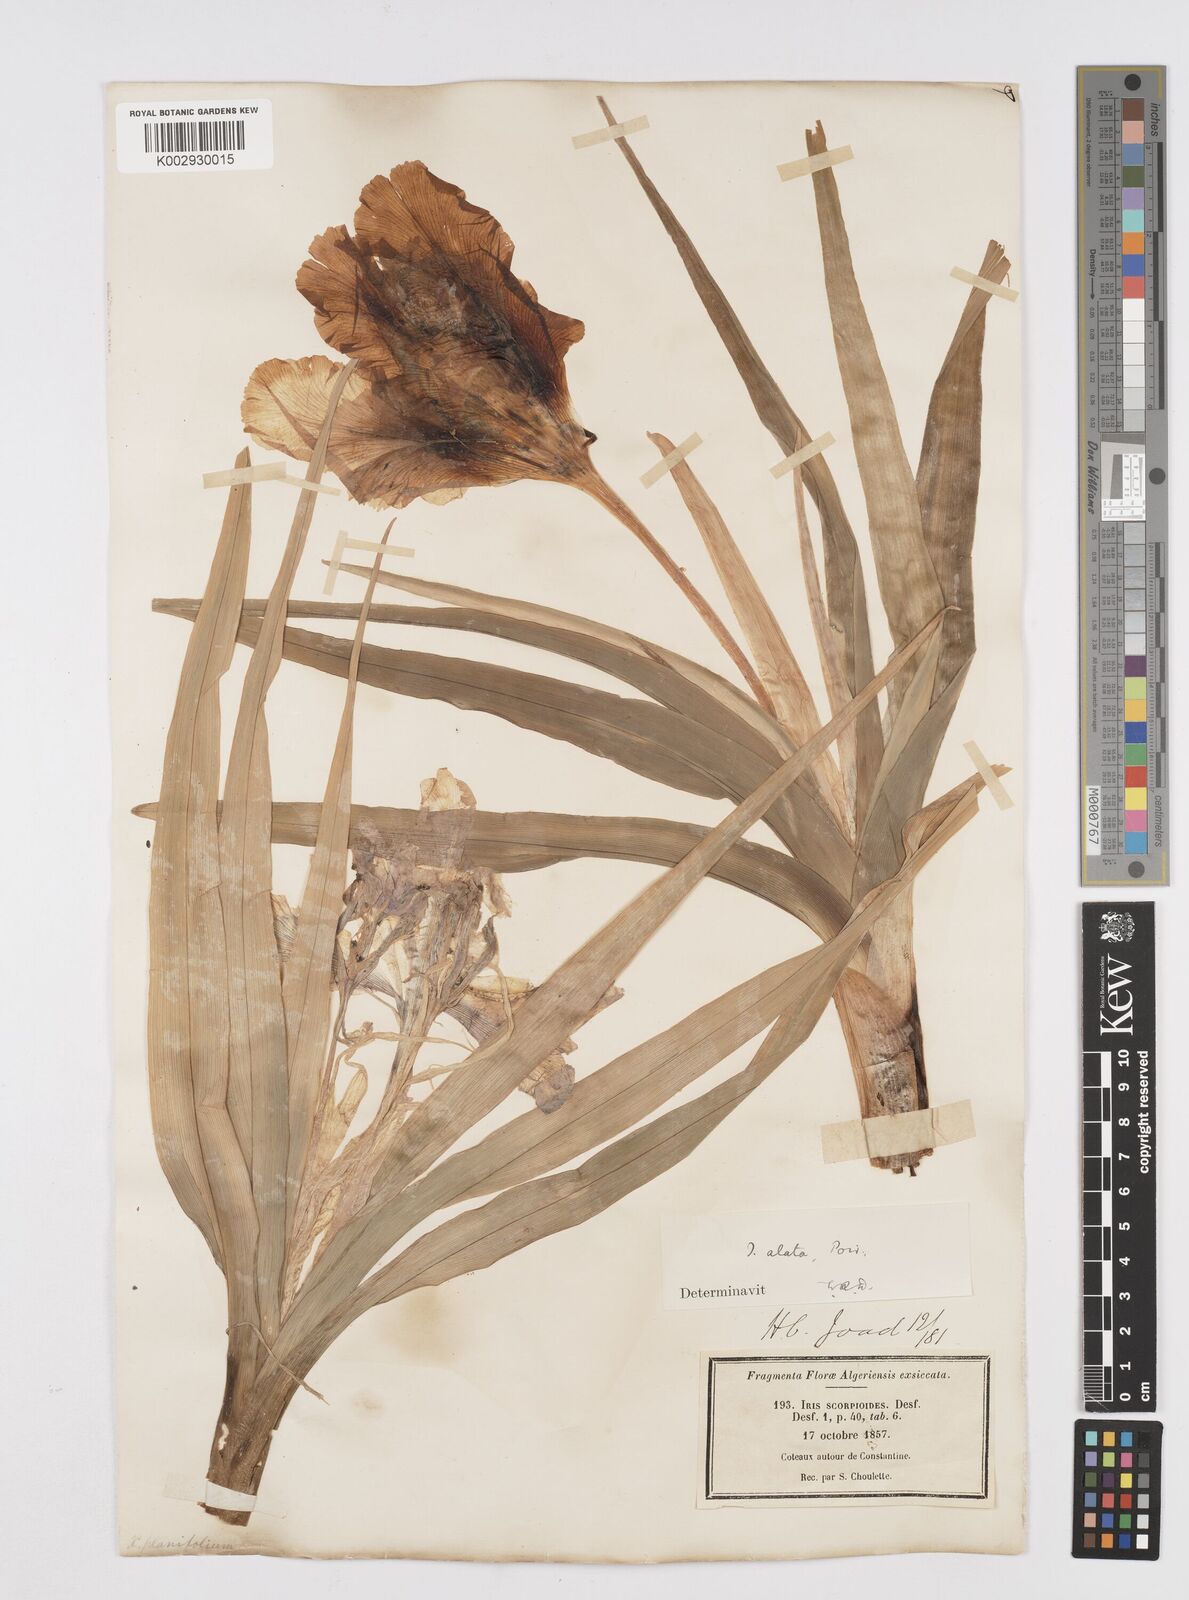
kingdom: Plantae
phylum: Tracheophyta
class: Liliopsida
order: Asparagales
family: Iridaceae
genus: Iris
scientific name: Iris planifolia
